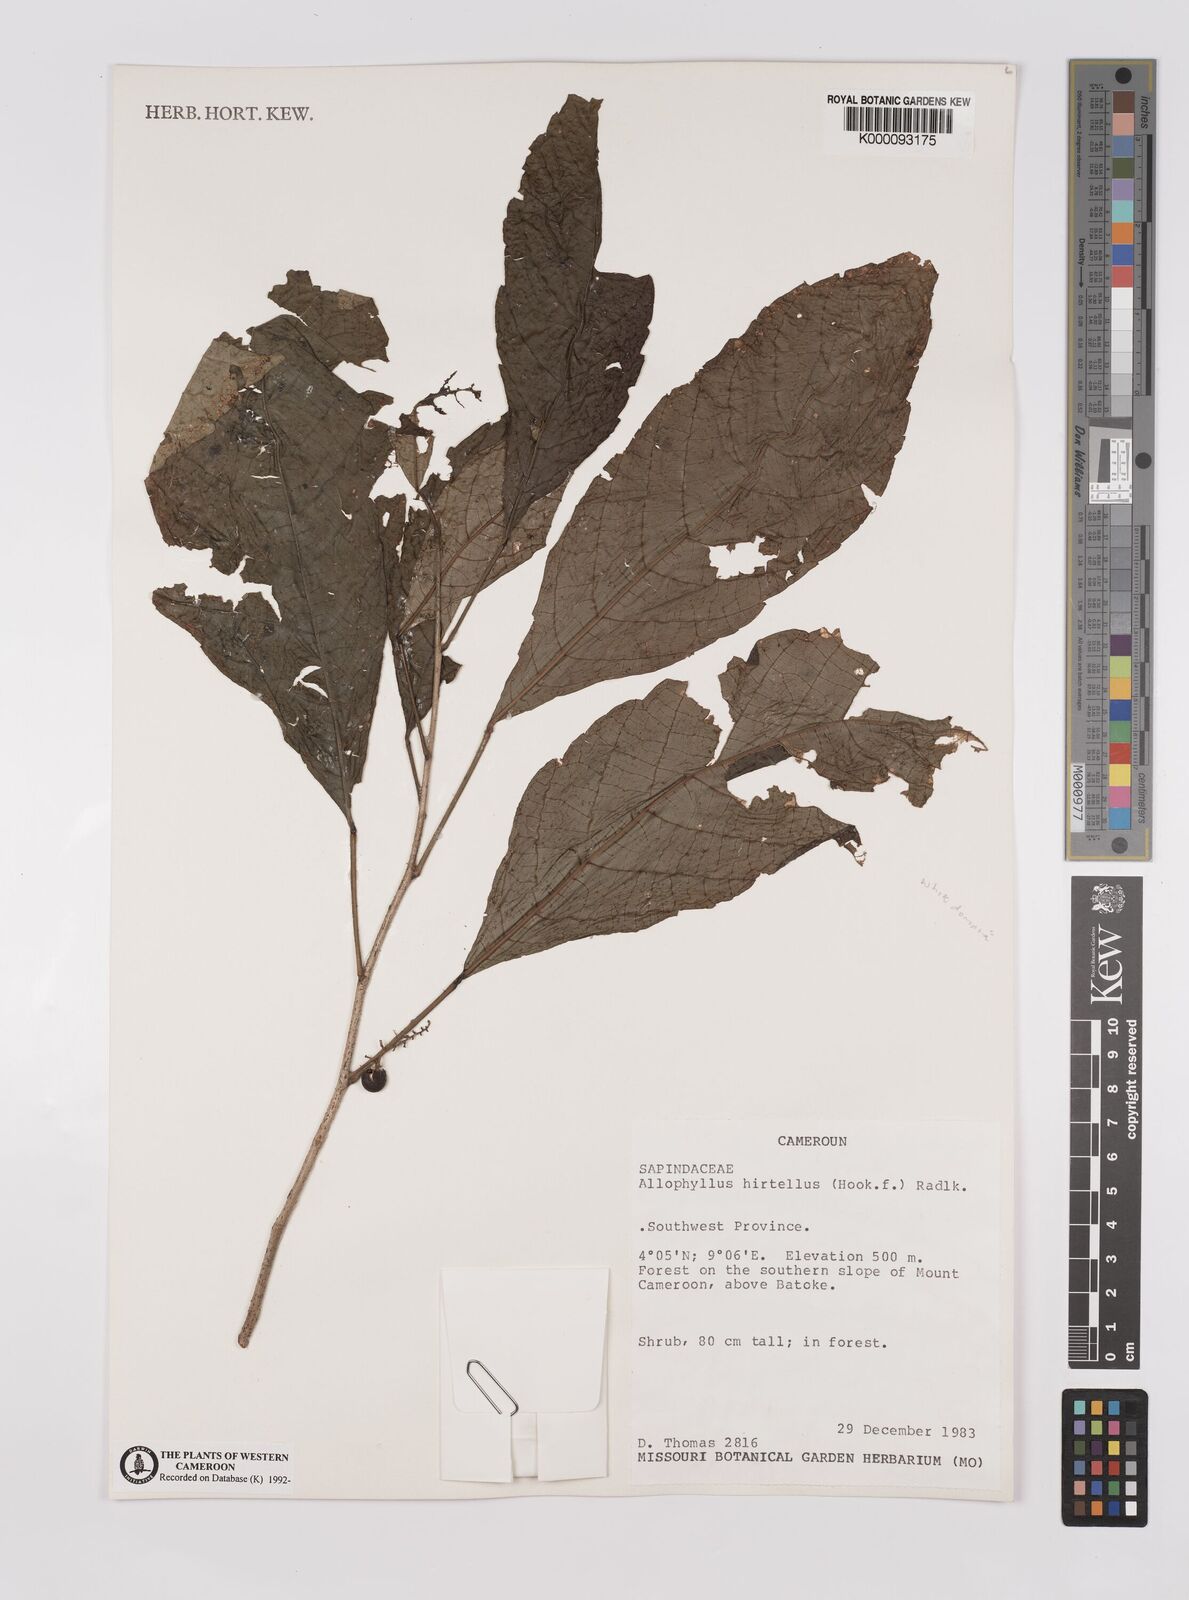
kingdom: Plantae
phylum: Tracheophyta
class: Magnoliopsida
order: Sapindales
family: Sapindaceae
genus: Allophylus
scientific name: Allophylus hirtellus
